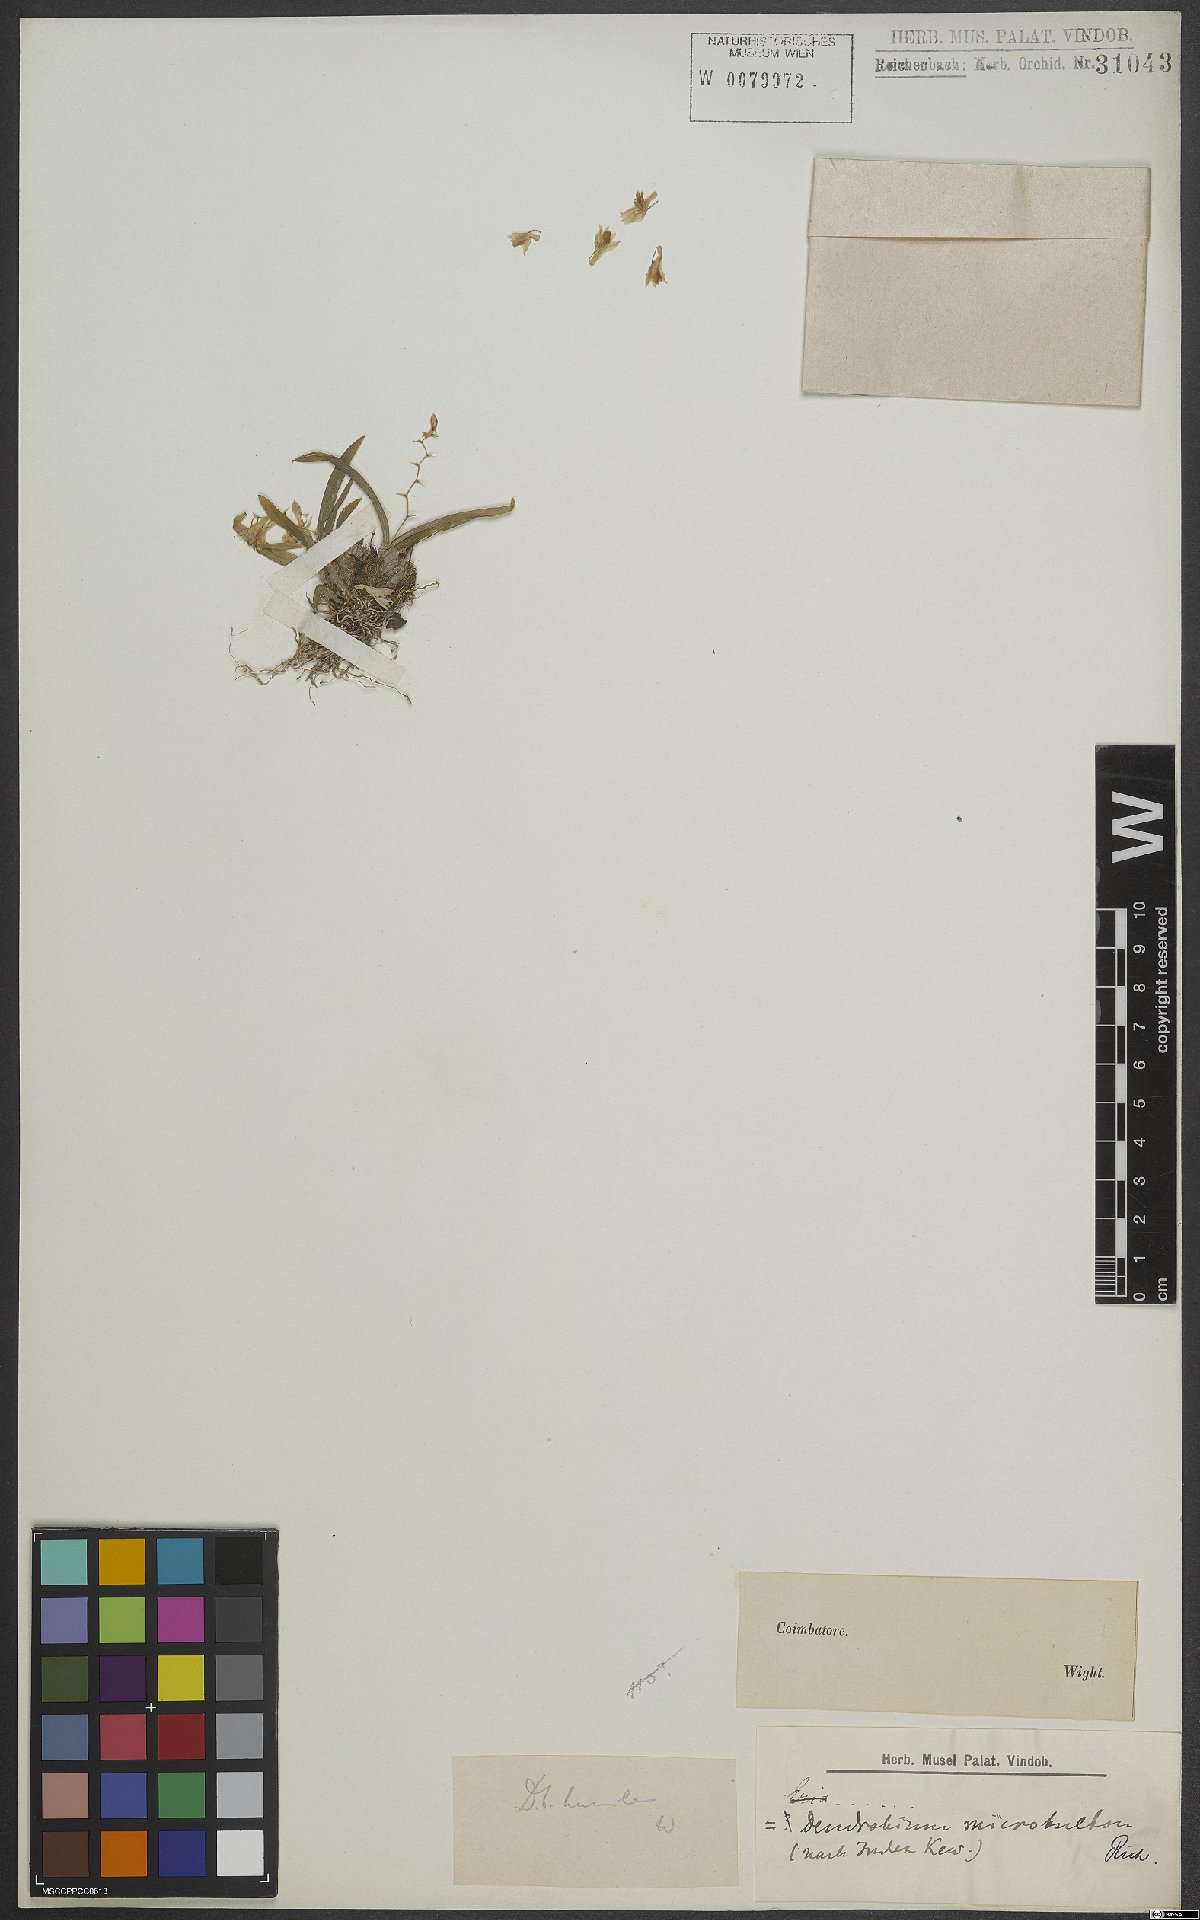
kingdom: Plantae
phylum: Tracheophyta
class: Liliopsida
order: Asparagales
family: Orchidaceae
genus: Dendrobium
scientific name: Dendrobium microbulbon
